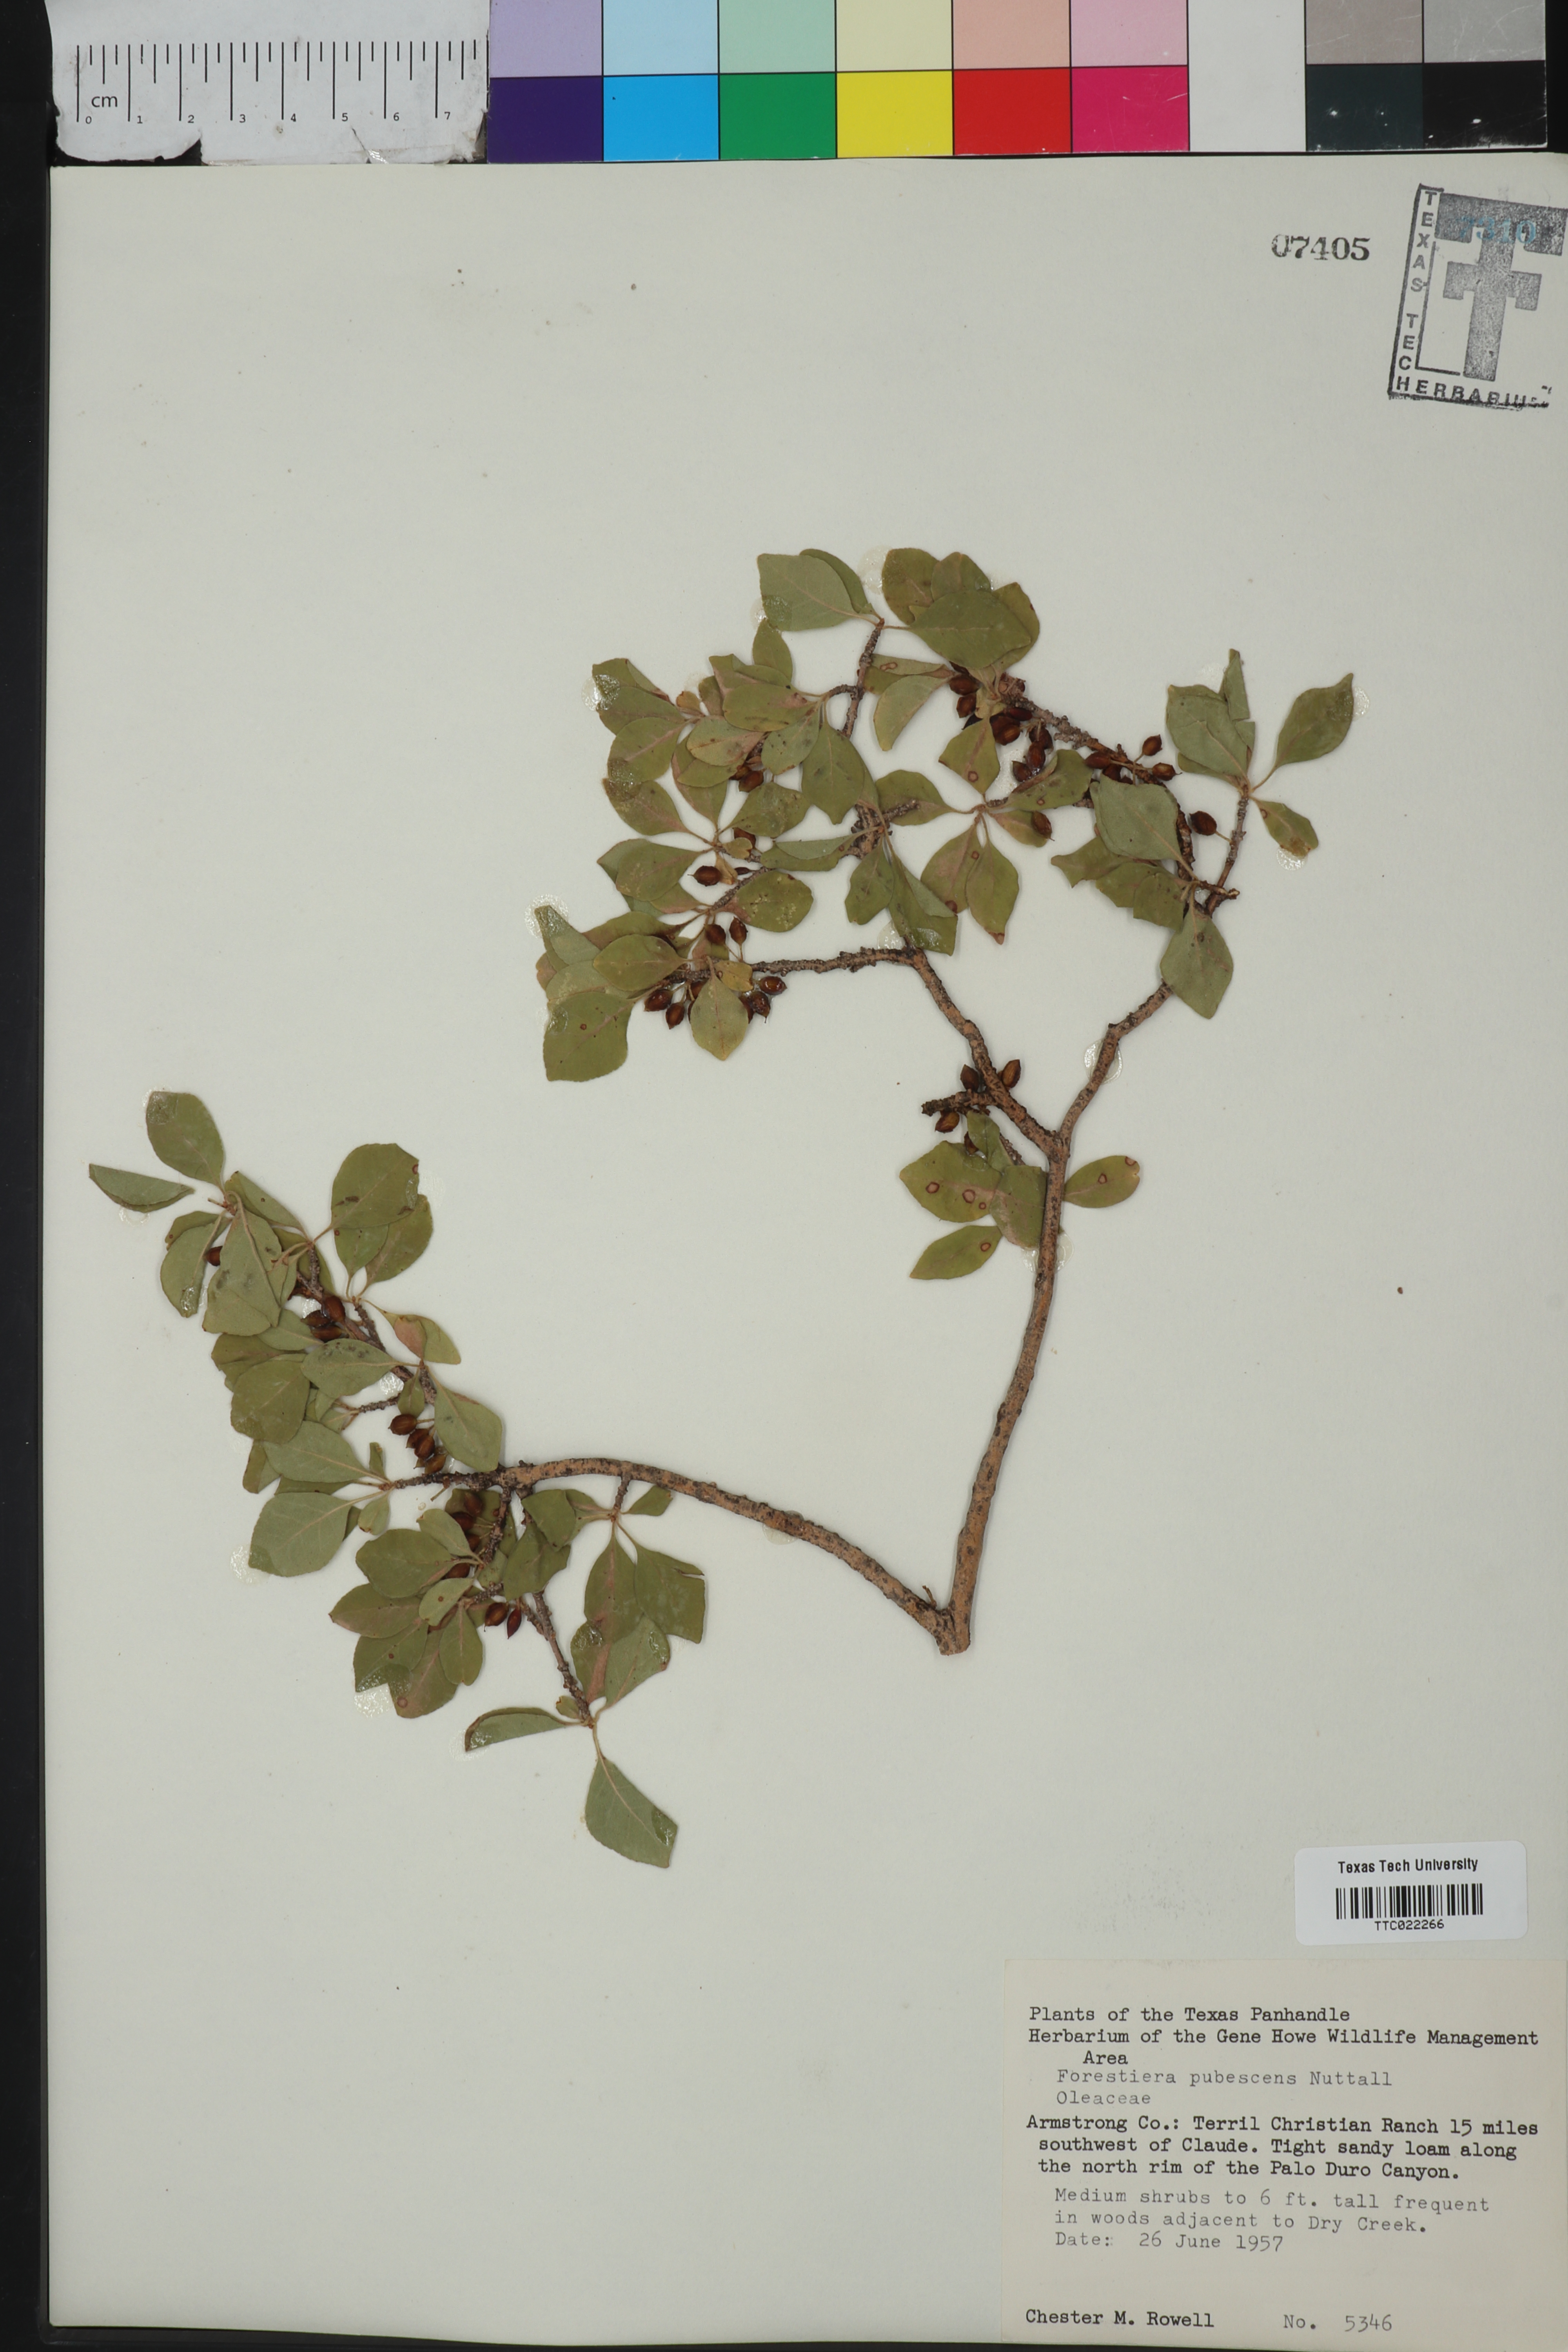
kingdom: Plantae
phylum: Tracheophyta
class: Magnoliopsida
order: Lamiales
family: Oleaceae
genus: Forestiera
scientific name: Forestiera pubescens
